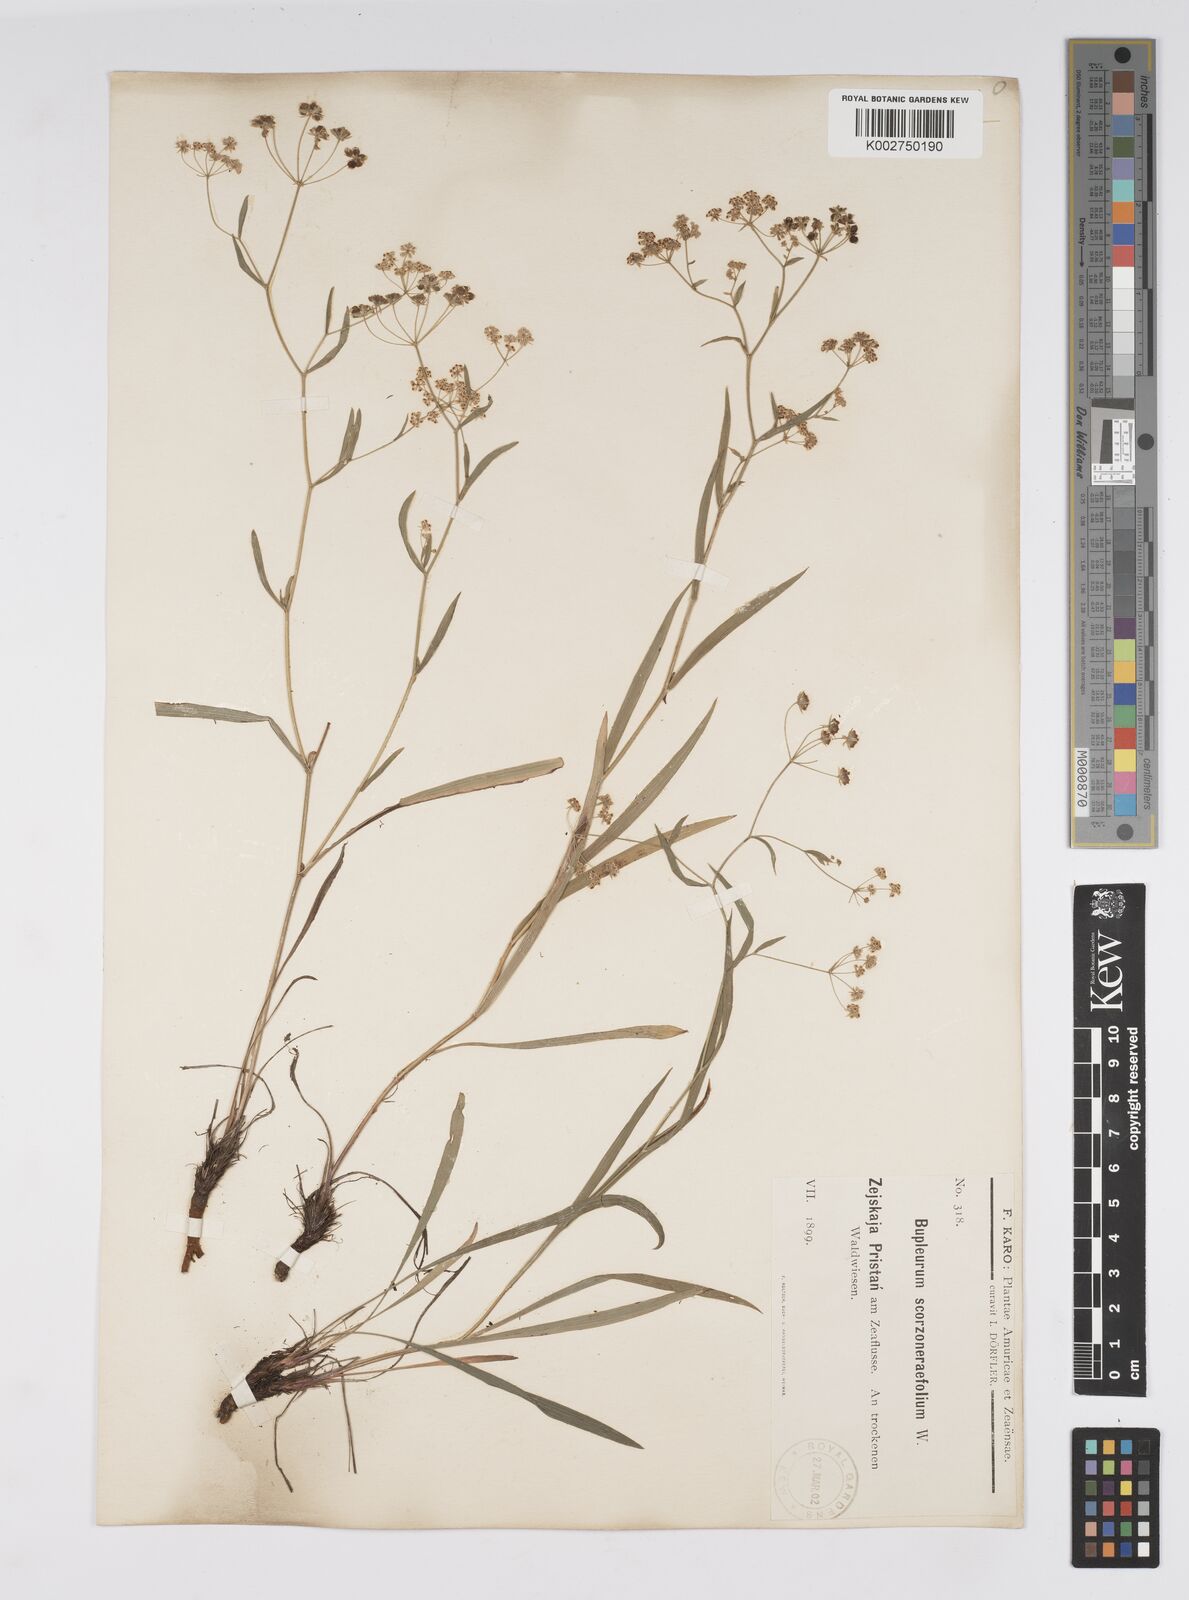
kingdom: Plantae
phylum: Tracheophyta
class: Magnoliopsida
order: Apiales
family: Apiaceae
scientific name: Apiaceae
